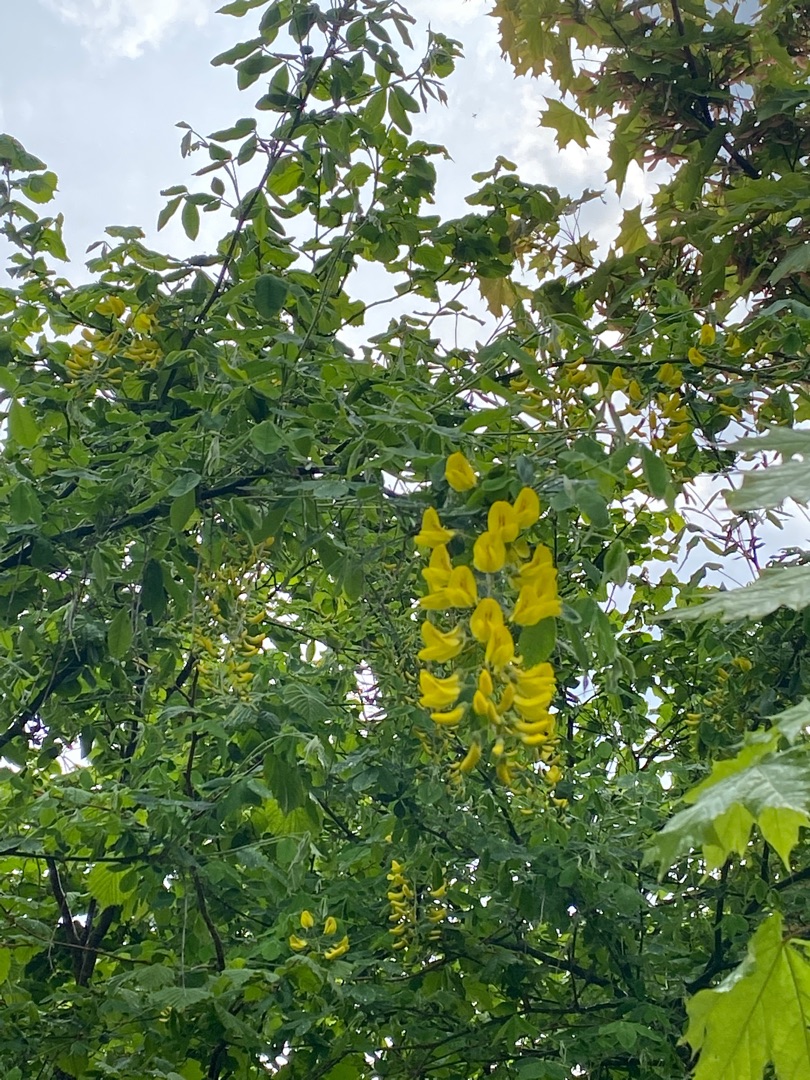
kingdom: Plantae
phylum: Tracheophyta
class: Magnoliopsida
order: Fabales
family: Fabaceae
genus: Laburnum
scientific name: Laburnum anagyroides
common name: Guldregn
